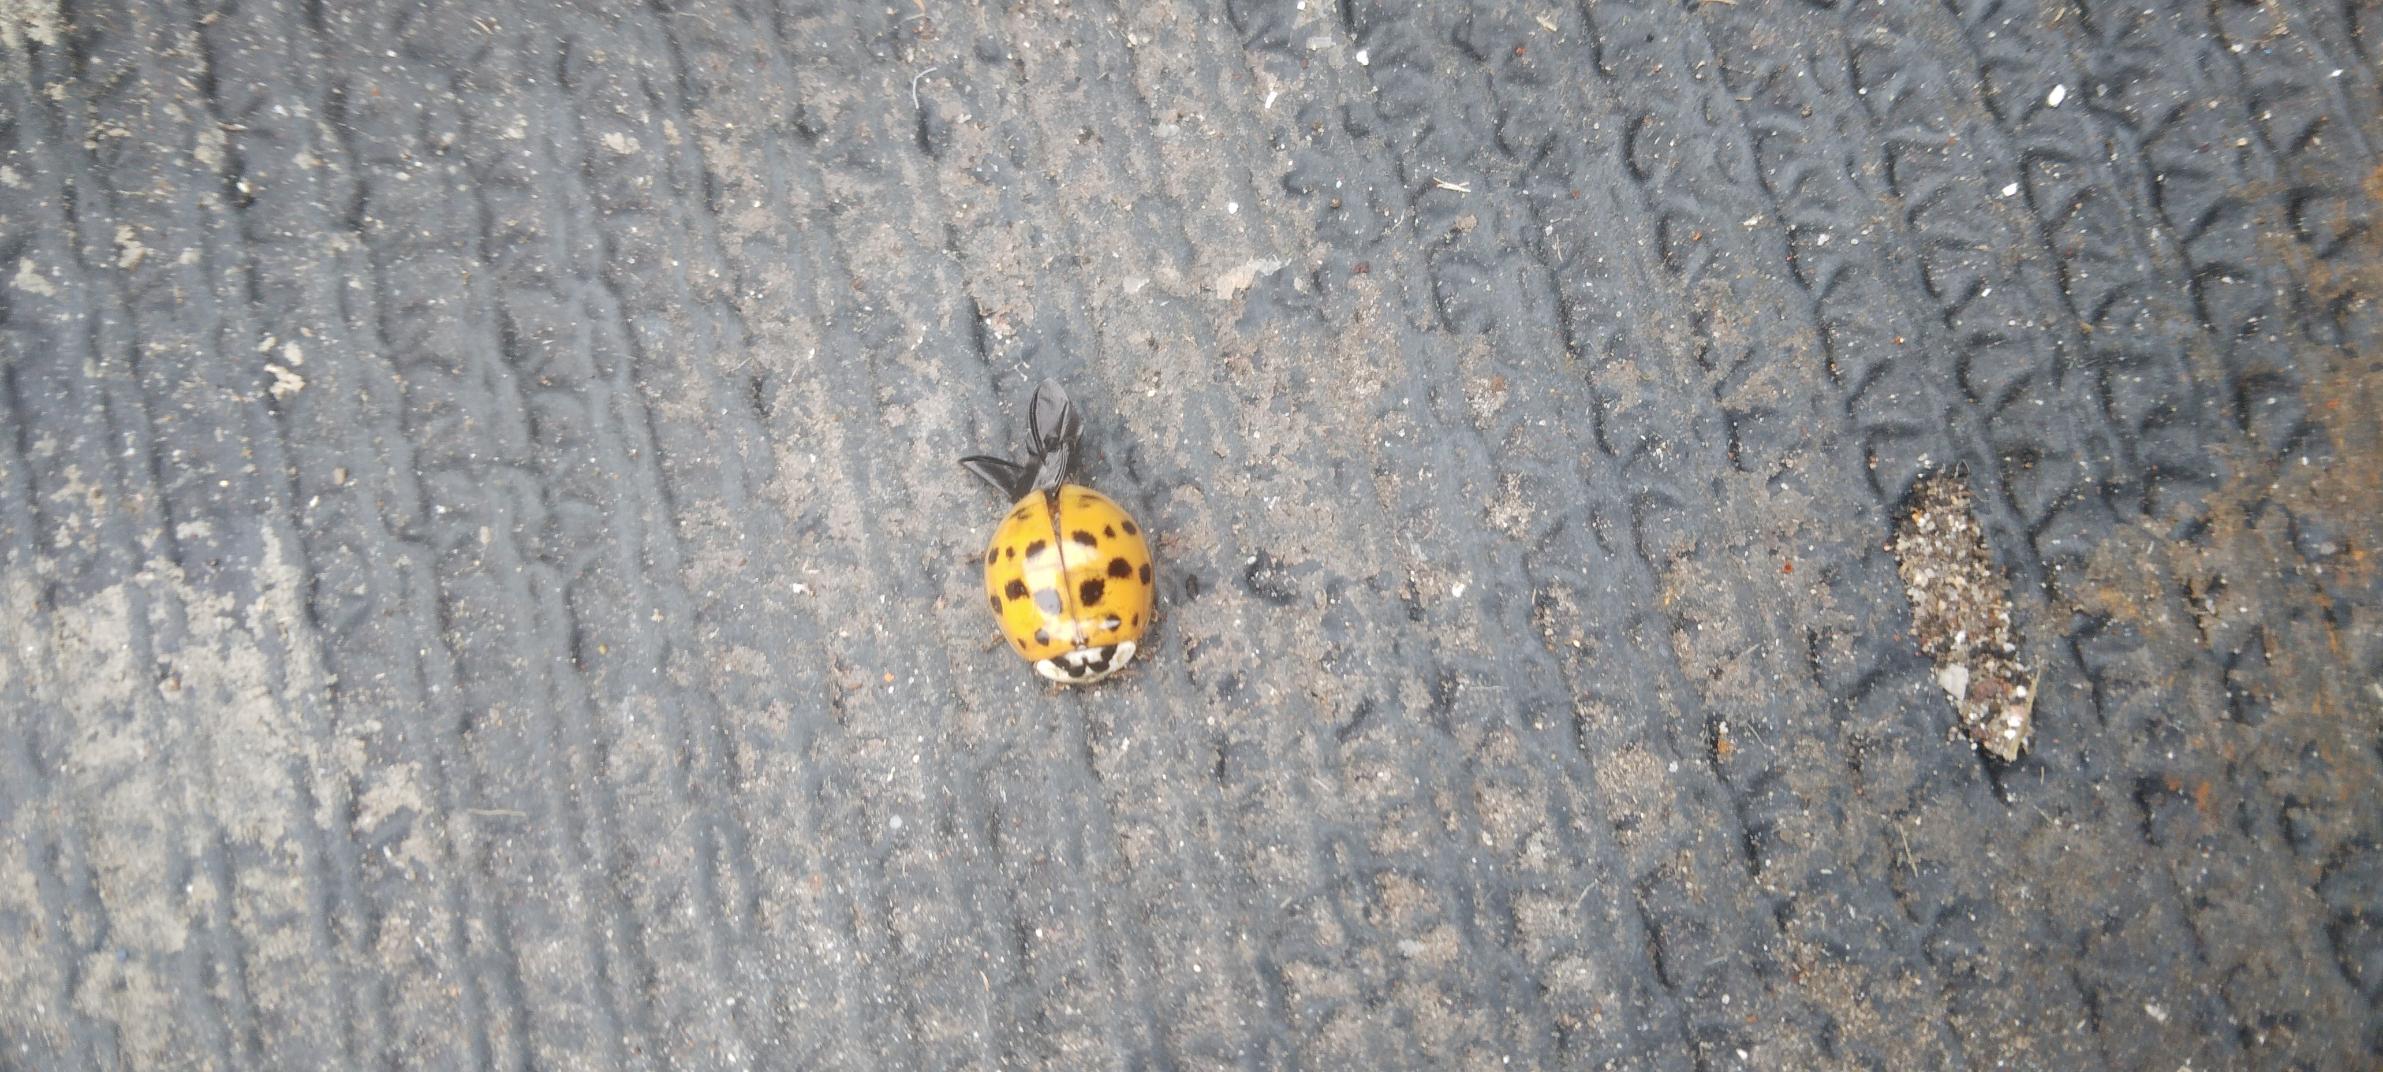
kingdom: Animalia
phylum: Arthropoda
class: Insecta
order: Coleoptera
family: Coccinellidae
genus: Harmonia
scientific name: Harmonia axyridis
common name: Harlekinmariehøne
